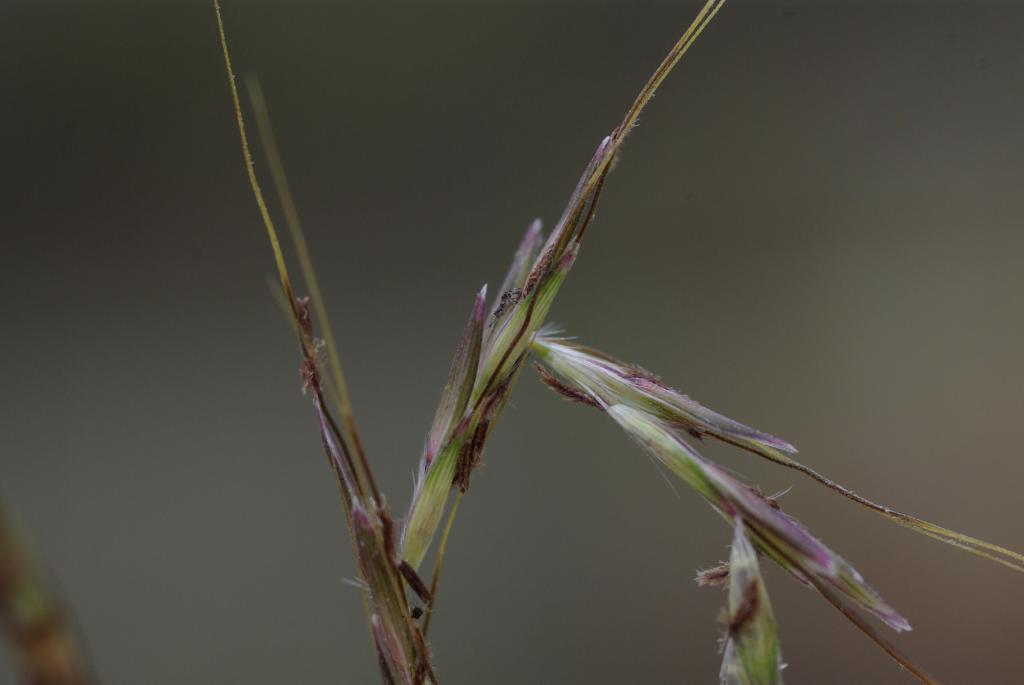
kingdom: Plantae
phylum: Tracheophyta
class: Liliopsida
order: Poales
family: Poaceae
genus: Bothriochloa
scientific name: Bothriochloa ischaemum
